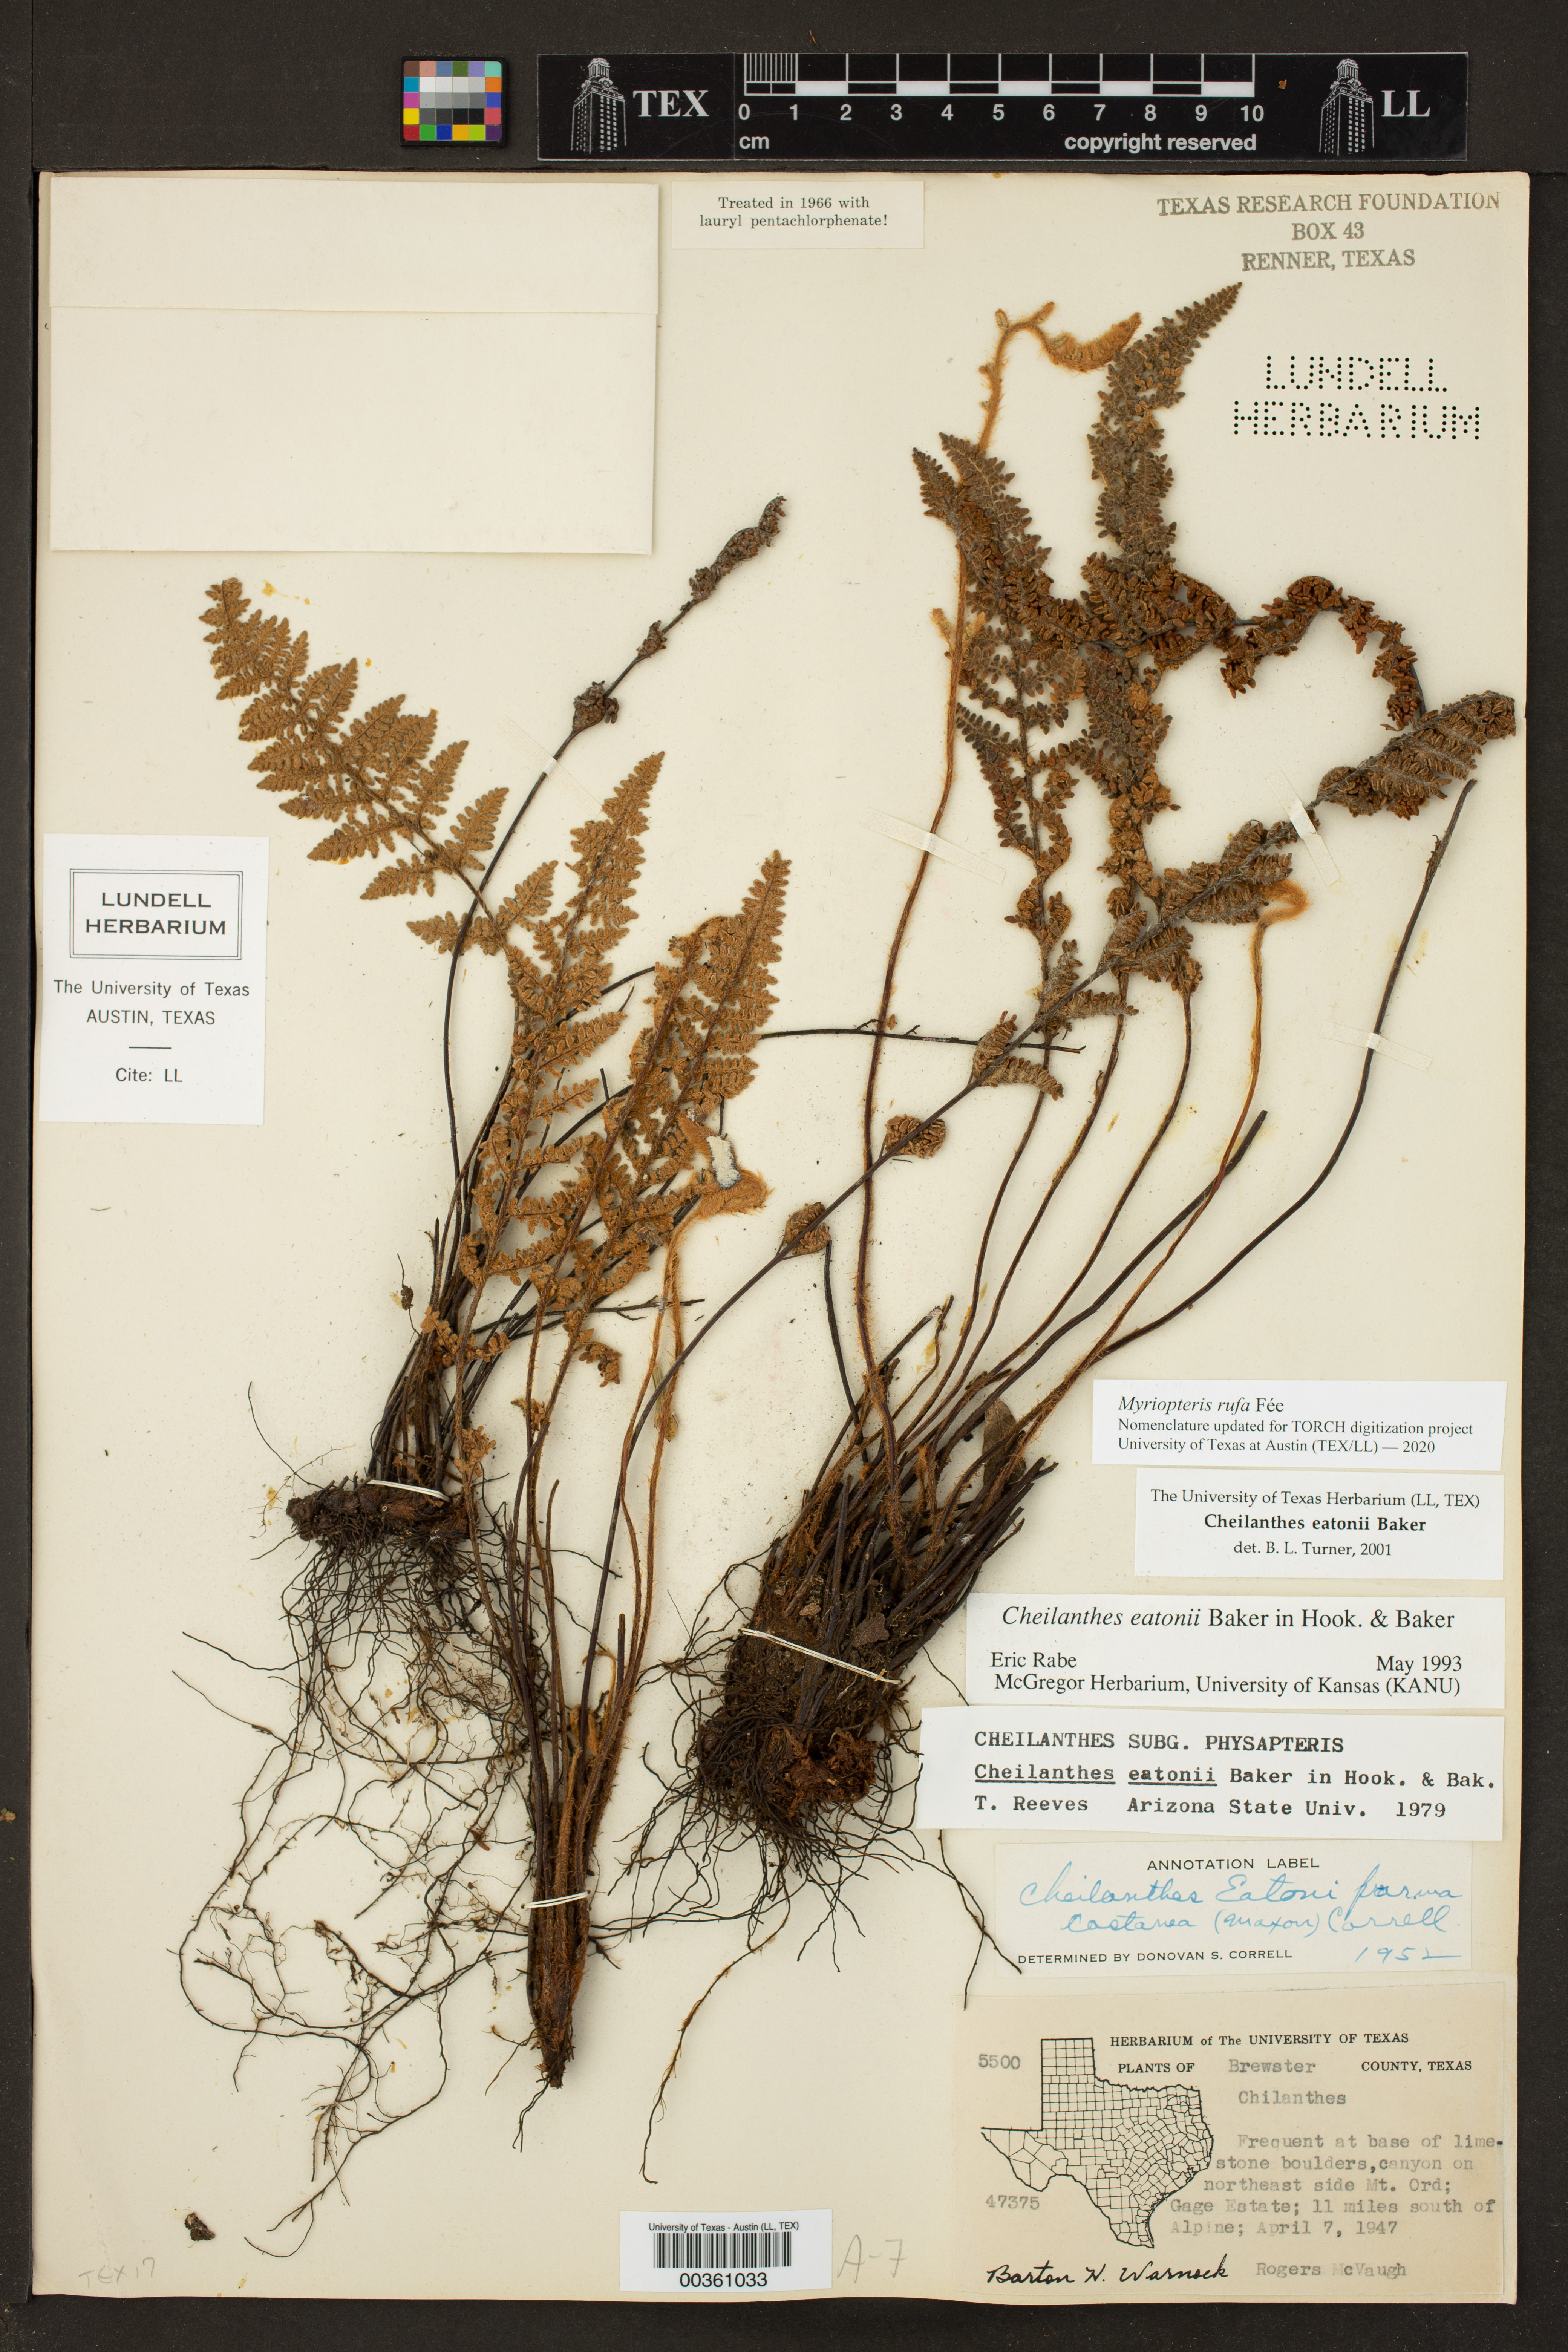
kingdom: Plantae
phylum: Tracheophyta
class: Polypodiopsida
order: Polypodiales
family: Pteridaceae
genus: Myriopteris
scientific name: Myriopteris rufa
